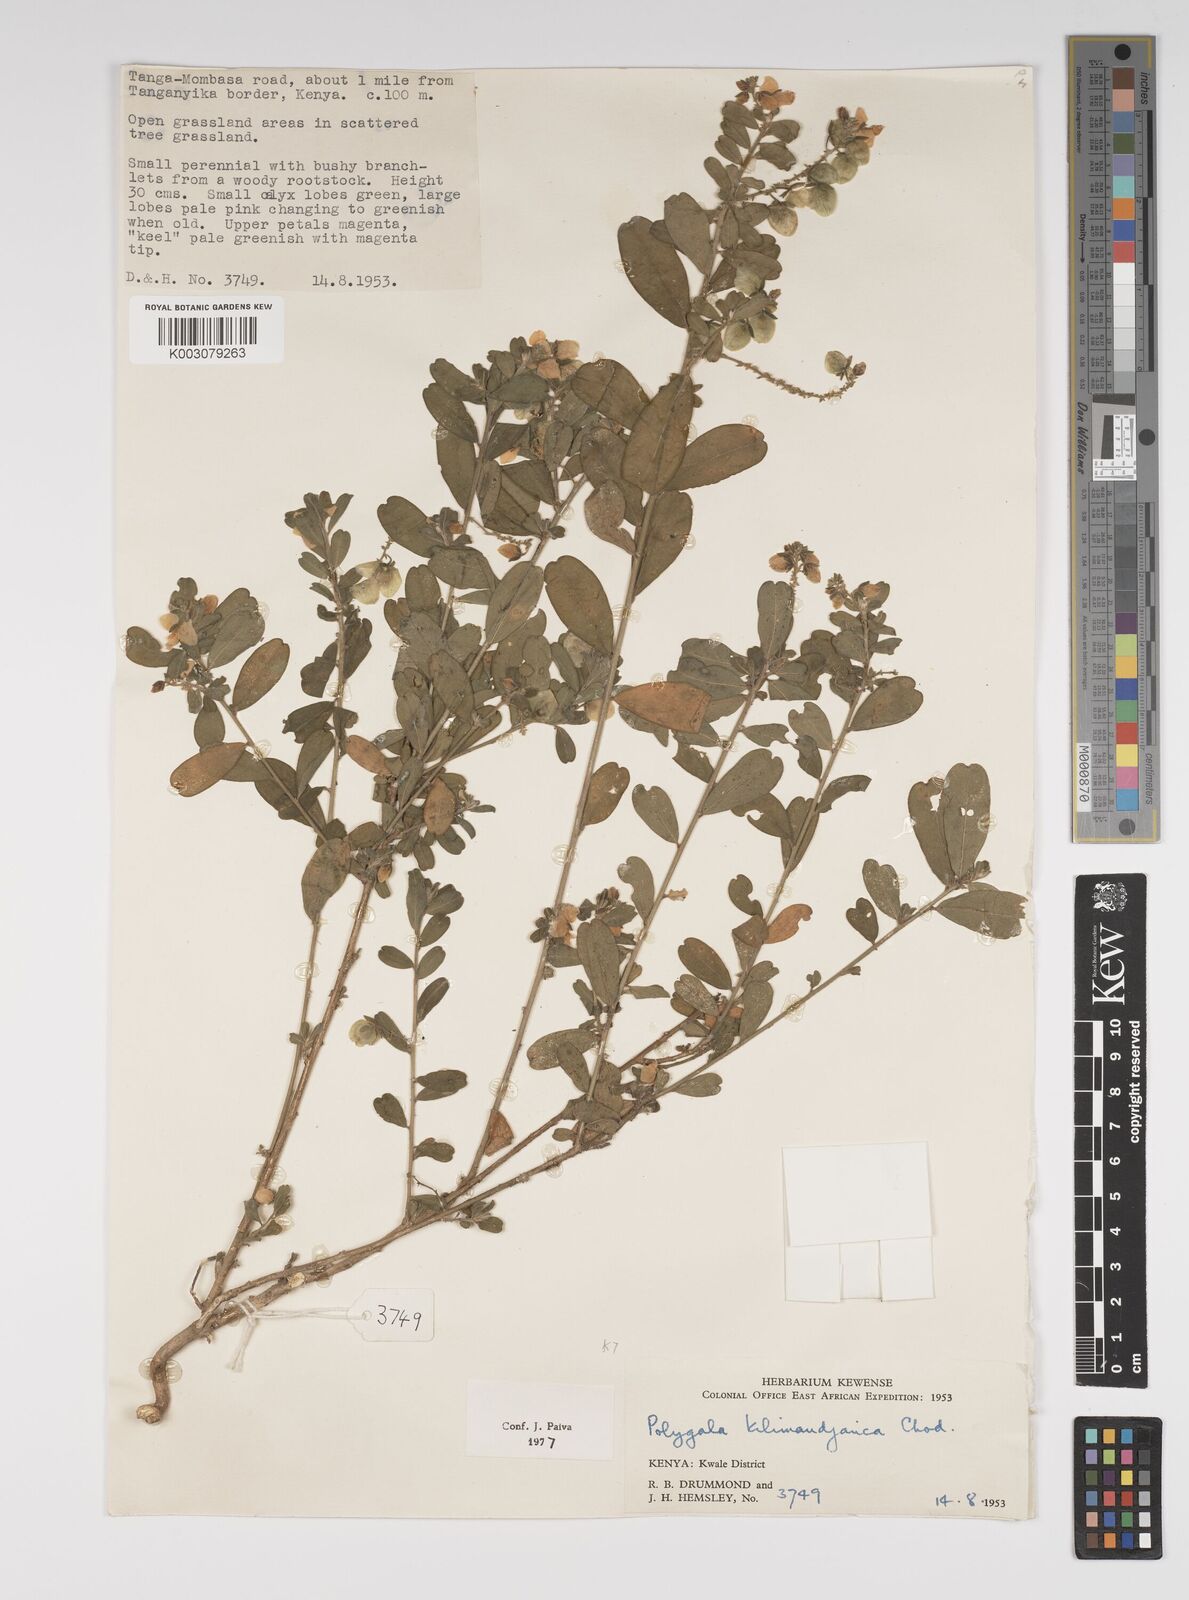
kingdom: Plantae
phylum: Tracheophyta
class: Magnoliopsida
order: Fabales
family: Polygalaceae
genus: Polygala
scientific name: Polygala kilimandjarica
